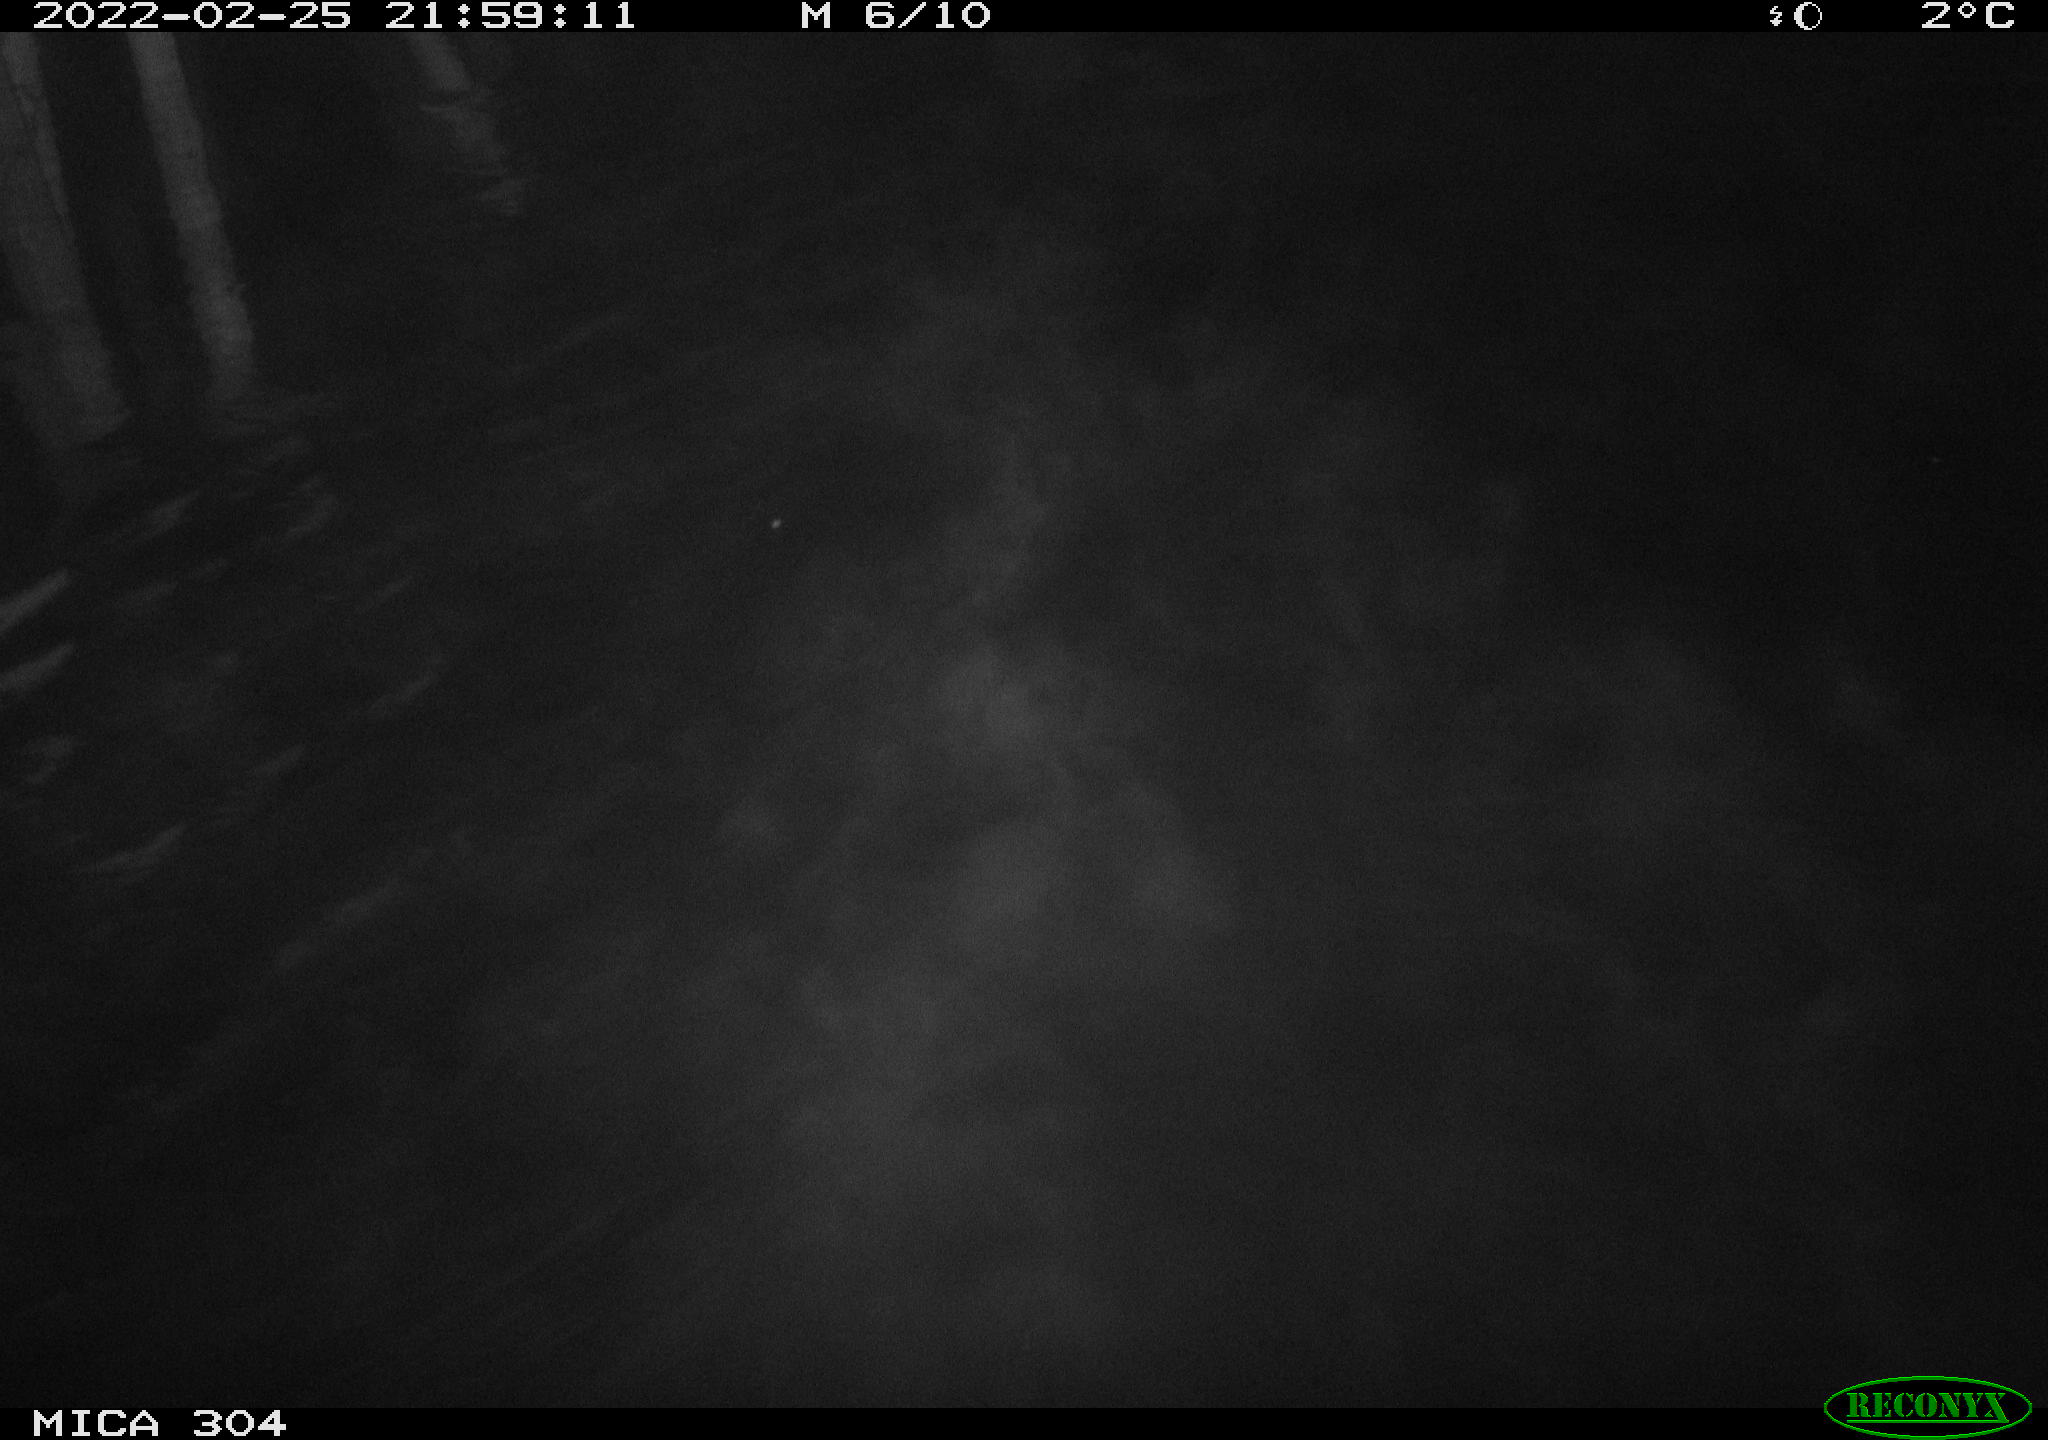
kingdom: Animalia
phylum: Chordata
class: Mammalia
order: Rodentia
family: Cricetidae
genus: Ondatra
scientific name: Ondatra zibethicus
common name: Muskrat
